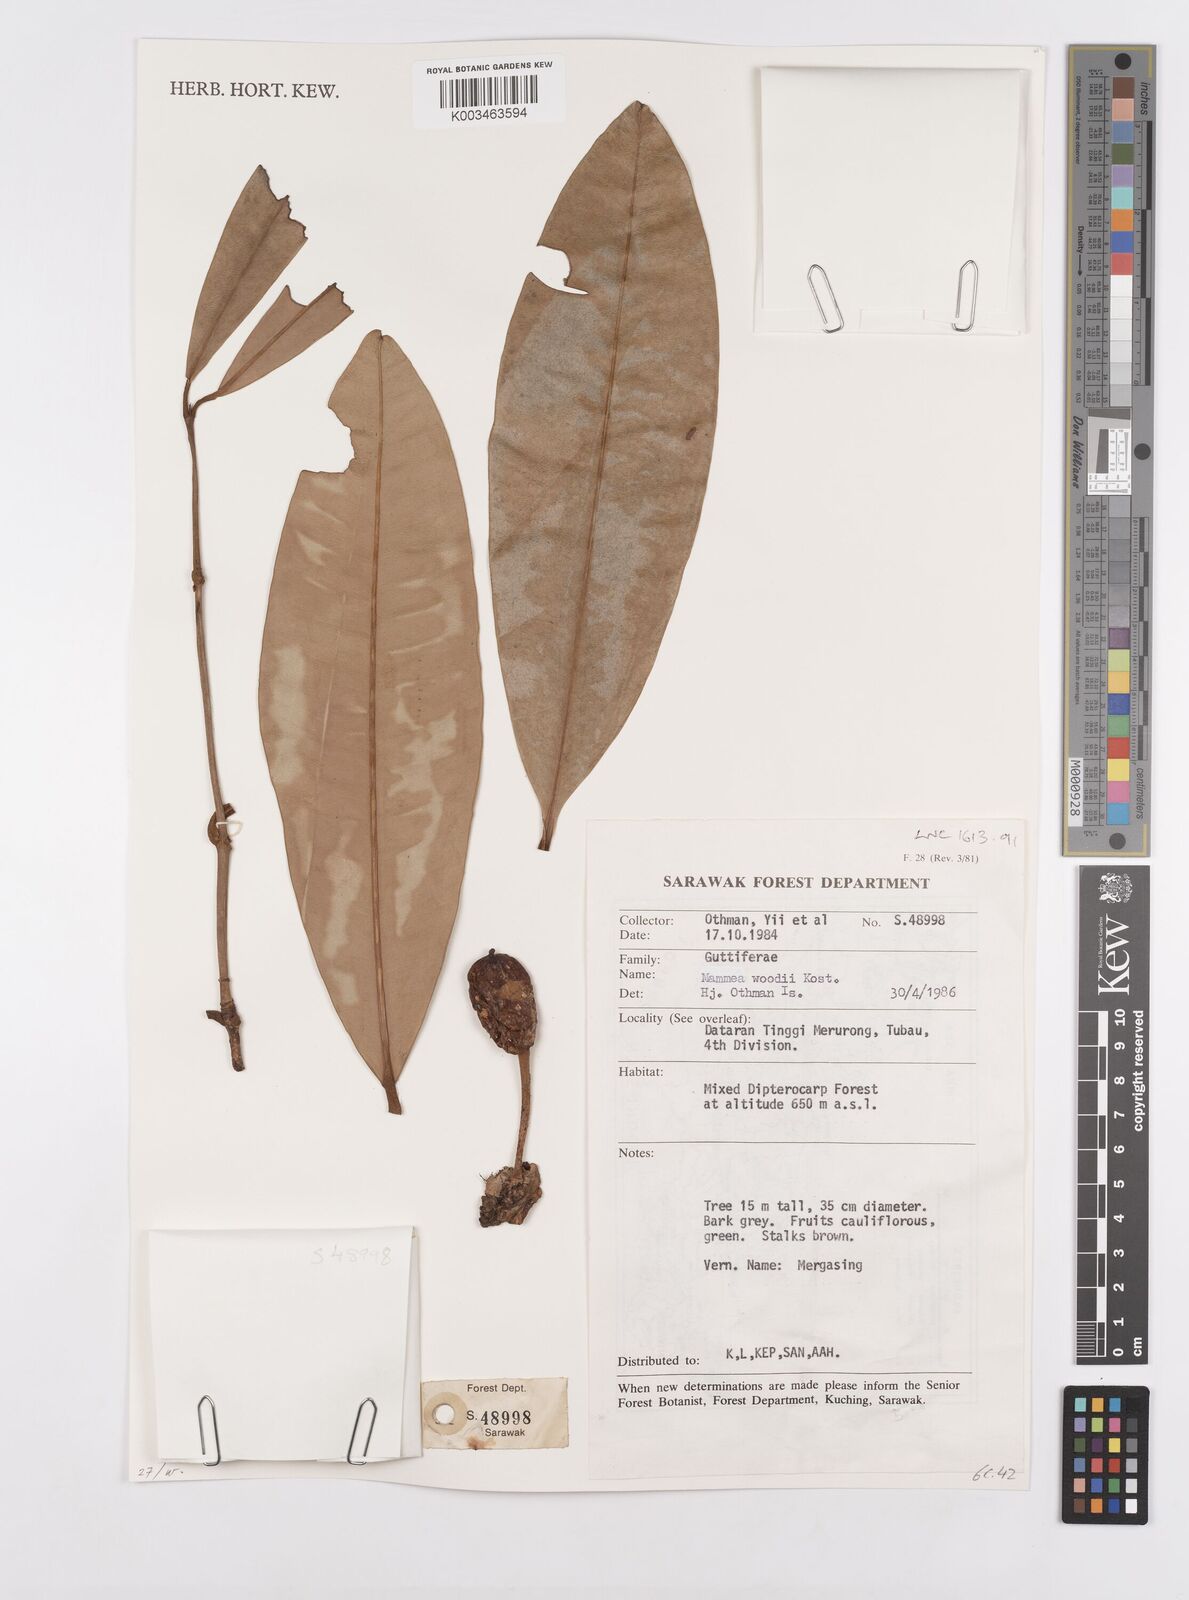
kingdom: Plantae
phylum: Tracheophyta
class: Magnoliopsida
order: Malpighiales
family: Calophyllaceae
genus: Mammea
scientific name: Mammea woodii
